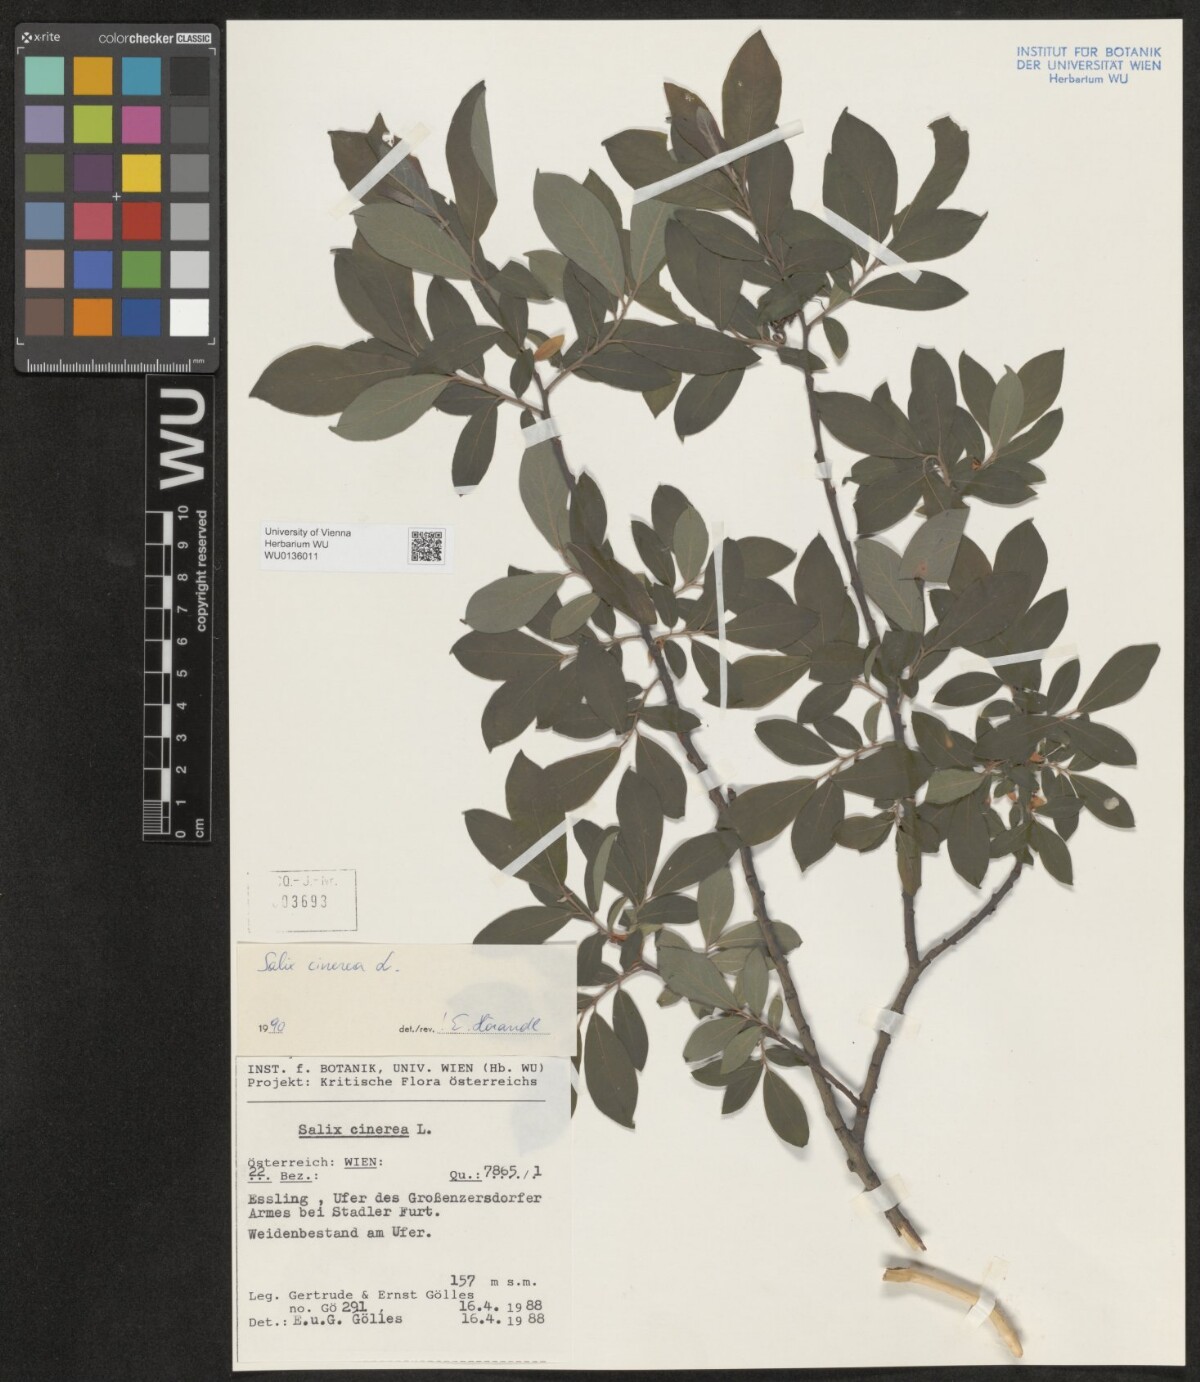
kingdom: Plantae
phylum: Tracheophyta
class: Magnoliopsida
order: Malpighiales
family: Salicaceae
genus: Salix
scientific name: Salix cinerea
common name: Common sallow
